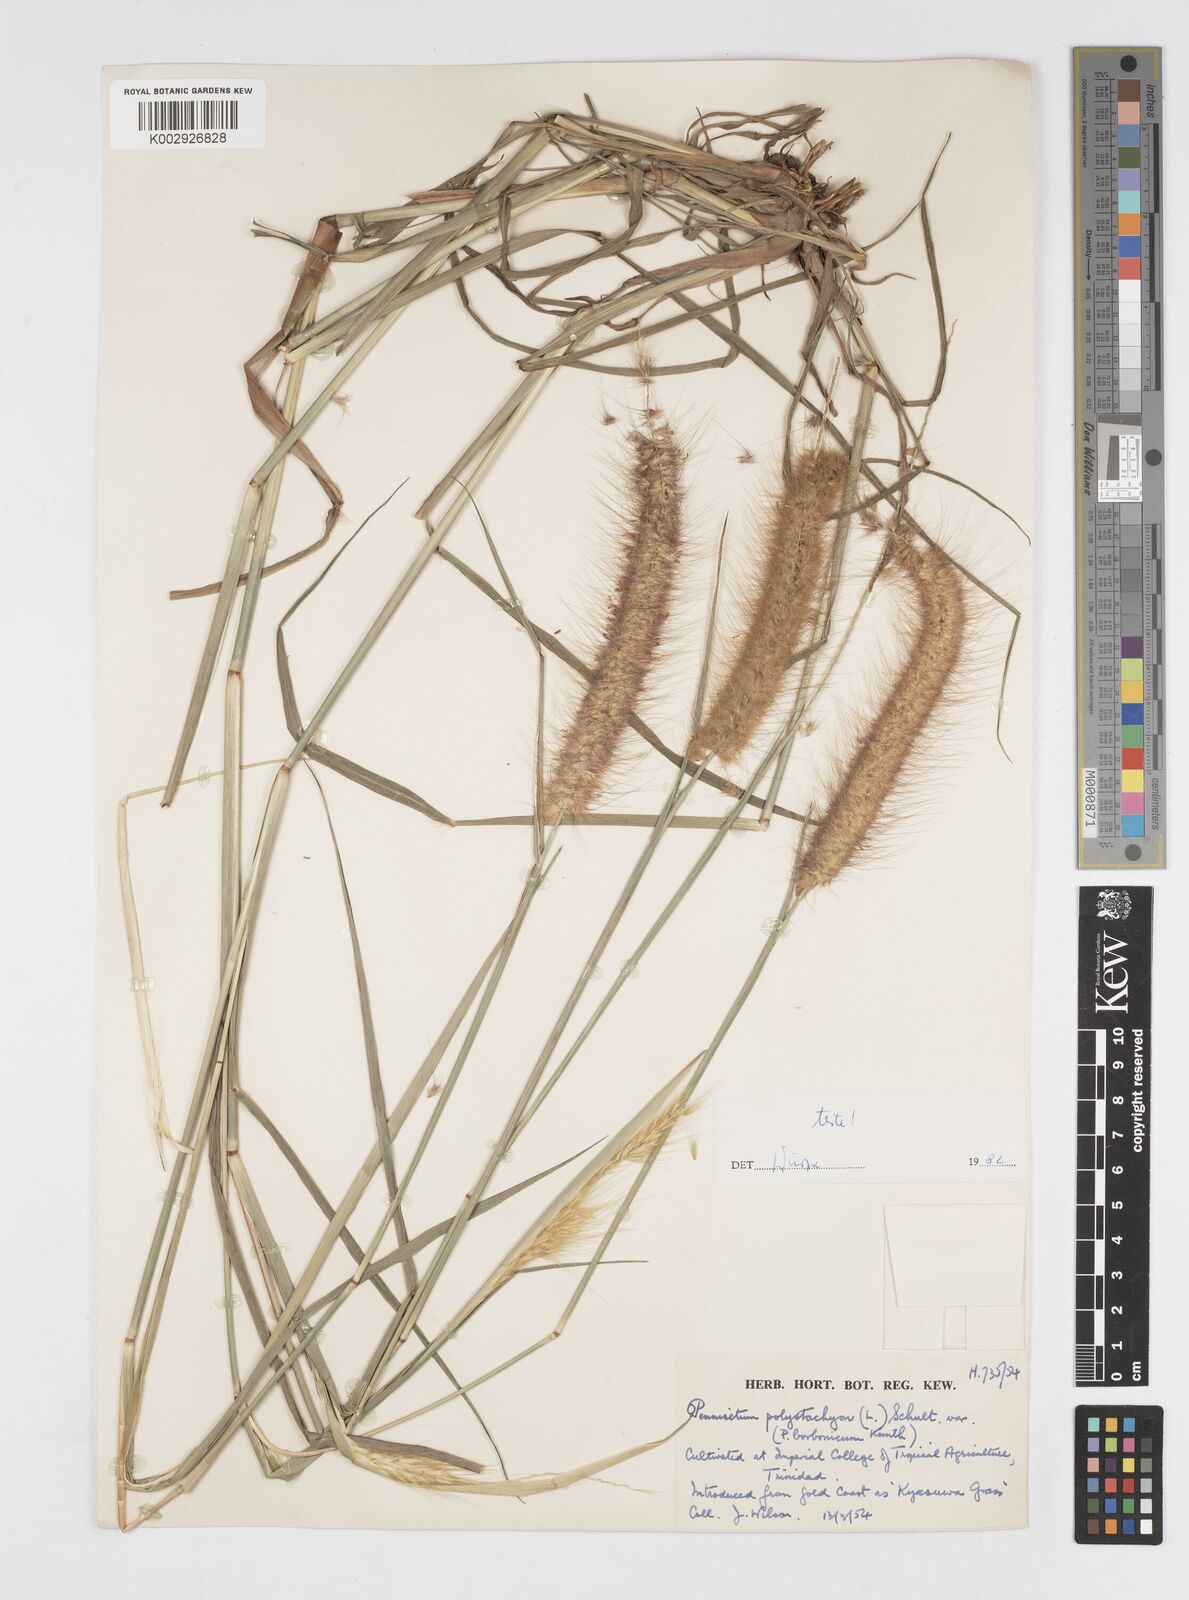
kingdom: Plantae
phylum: Tracheophyta
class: Liliopsida
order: Poales
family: Poaceae
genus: Cenchrus
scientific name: Cenchrus setosus
